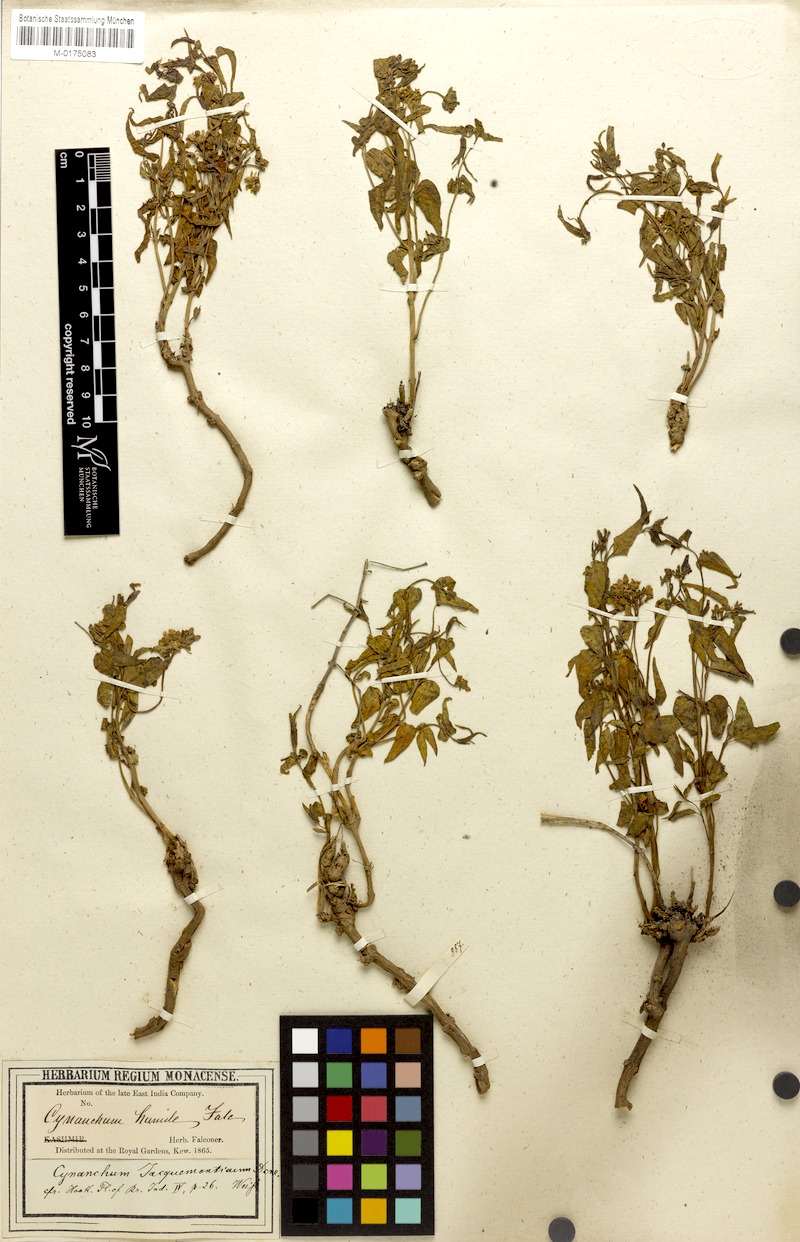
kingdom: Plantae
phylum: Tracheophyta
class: Magnoliopsida
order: Gentianales
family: Apocynaceae
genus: Vincetoxicum
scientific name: Vincetoxicum jacquemontianum
